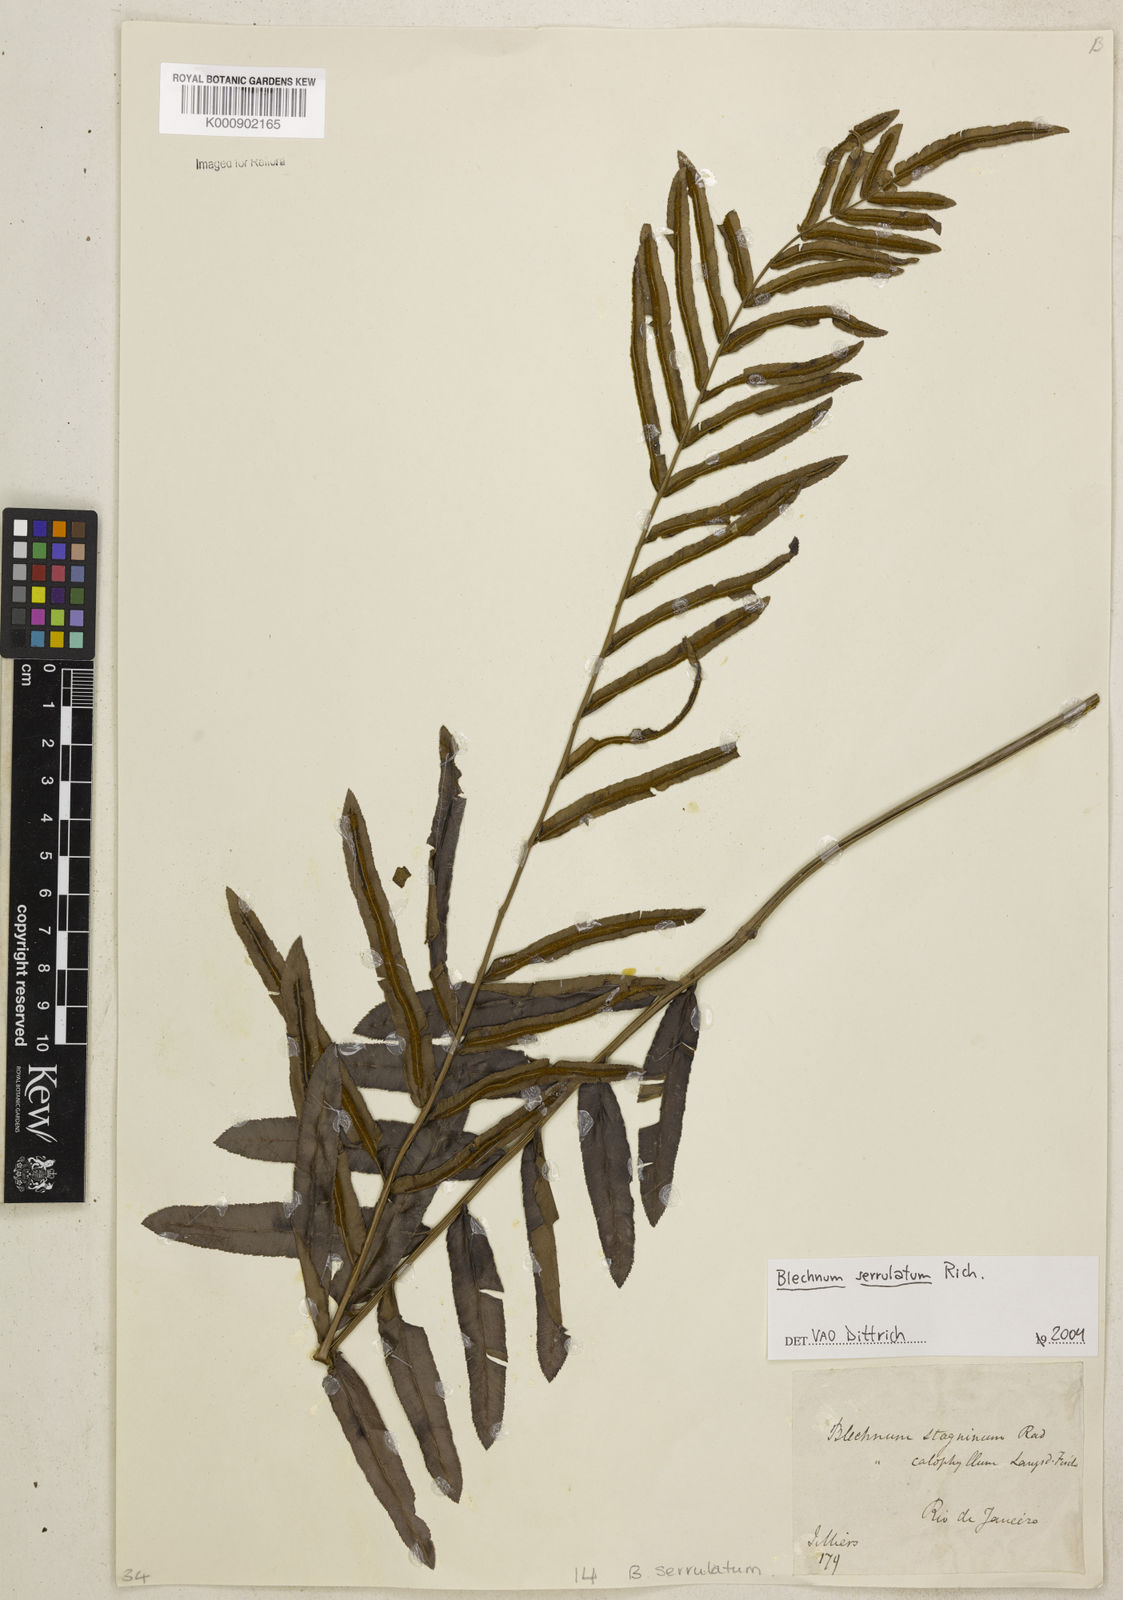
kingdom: Plantae
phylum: Tracheophyta
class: Polypodiopsida
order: Polypodiales
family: Blechnaceae
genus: Telmatoblechnum
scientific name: Telmatoblechnum serrulatum
